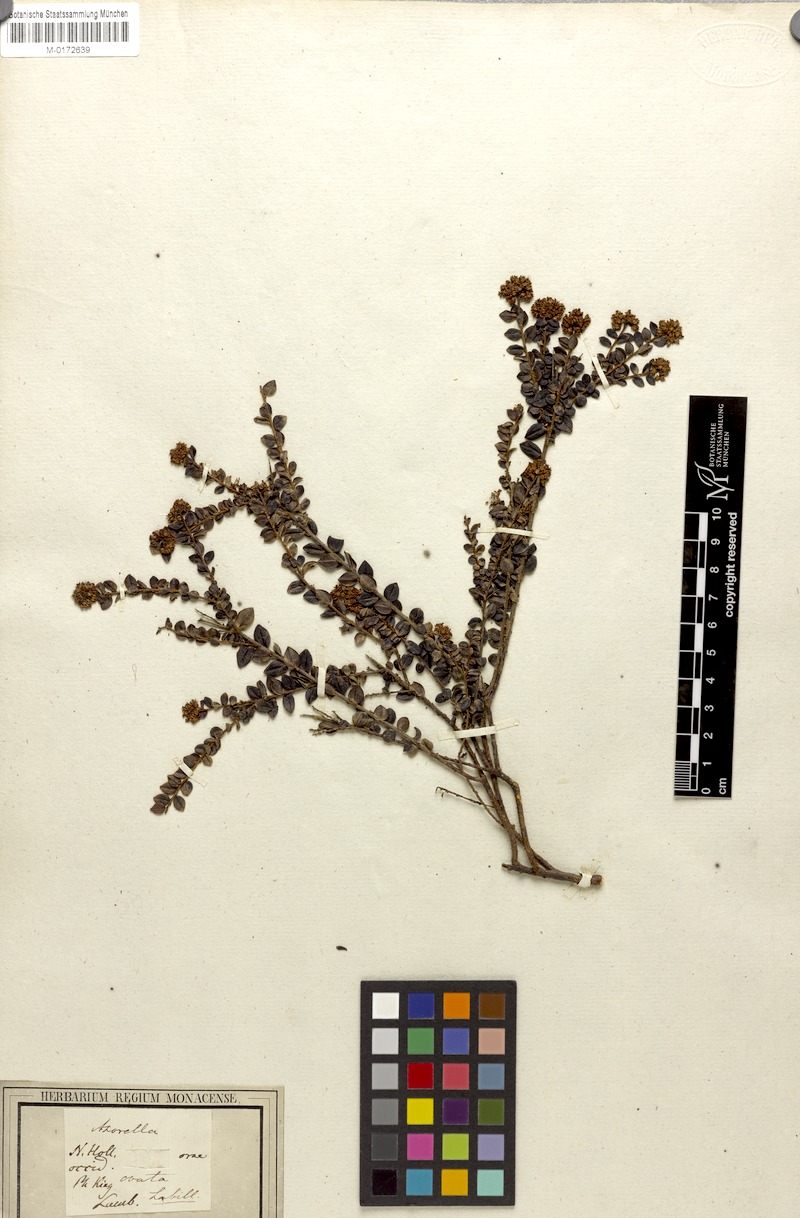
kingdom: Plantae
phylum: Tracheophyta
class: Magnoliopsida
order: Apiales
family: Araliaceae
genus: Trachymene
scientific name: Trachymene ovata
